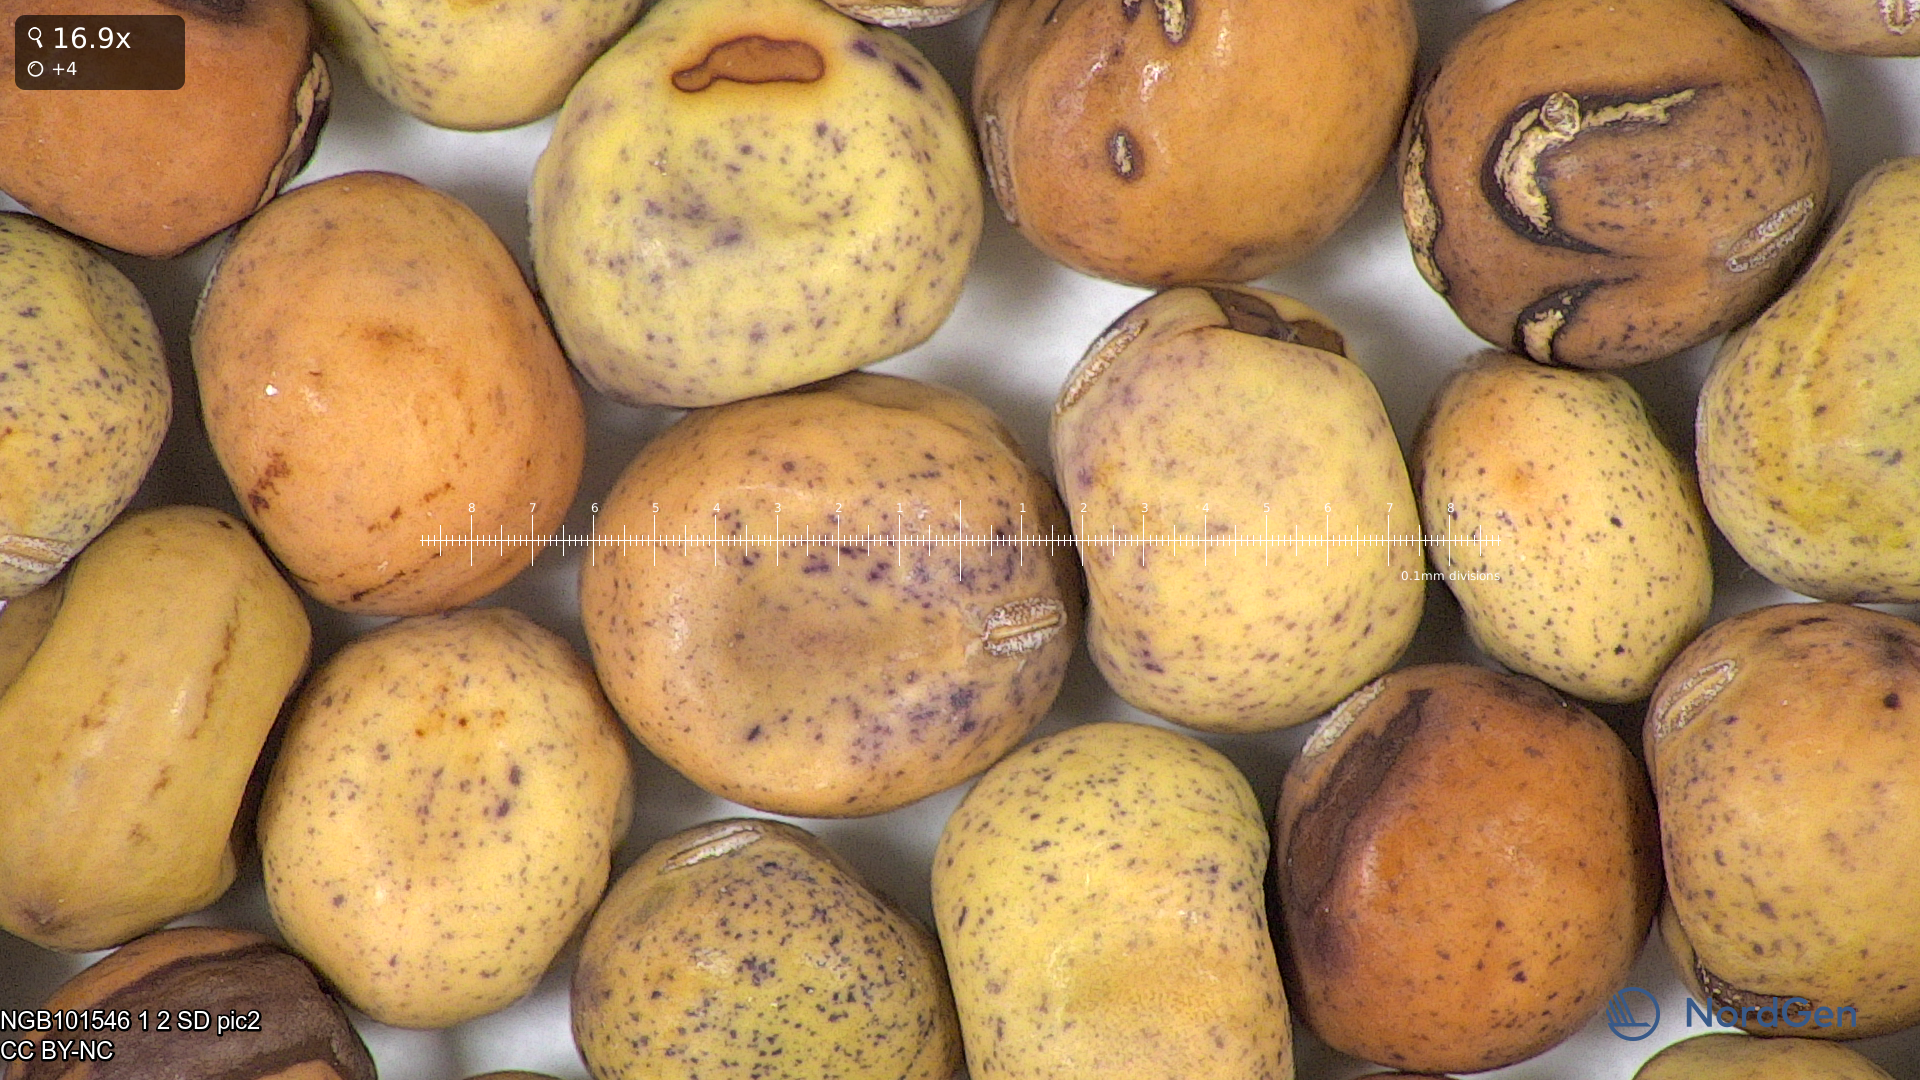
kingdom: Plantae
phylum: Tracheophyta
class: Magnoliopsida
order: Fabales
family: Fabaceae
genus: Lathyrus
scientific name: Lathyrus oleraceus
